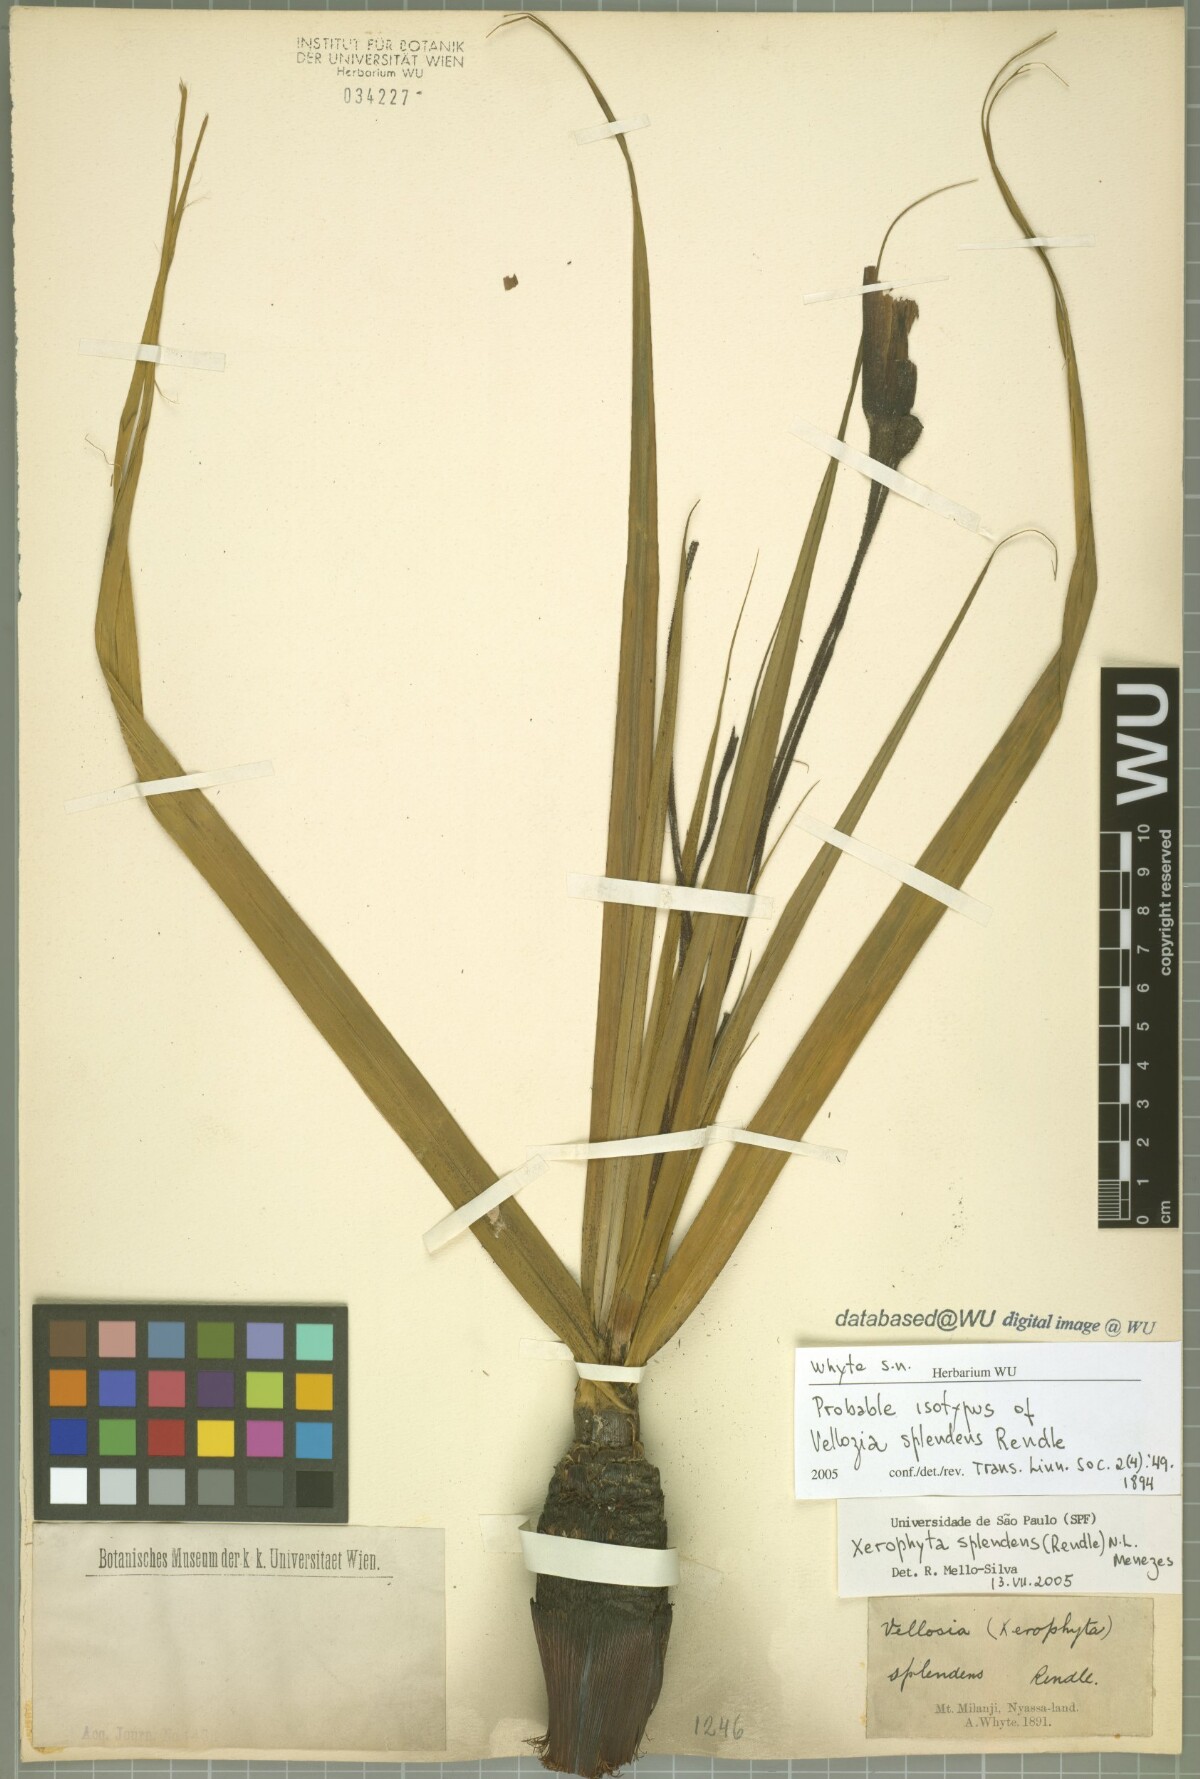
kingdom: Plantae
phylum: Tracheophyta
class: Liliopsida
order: Pandanales
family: Velloziaceae
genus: Xerophyta
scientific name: Xerophyta splendens
